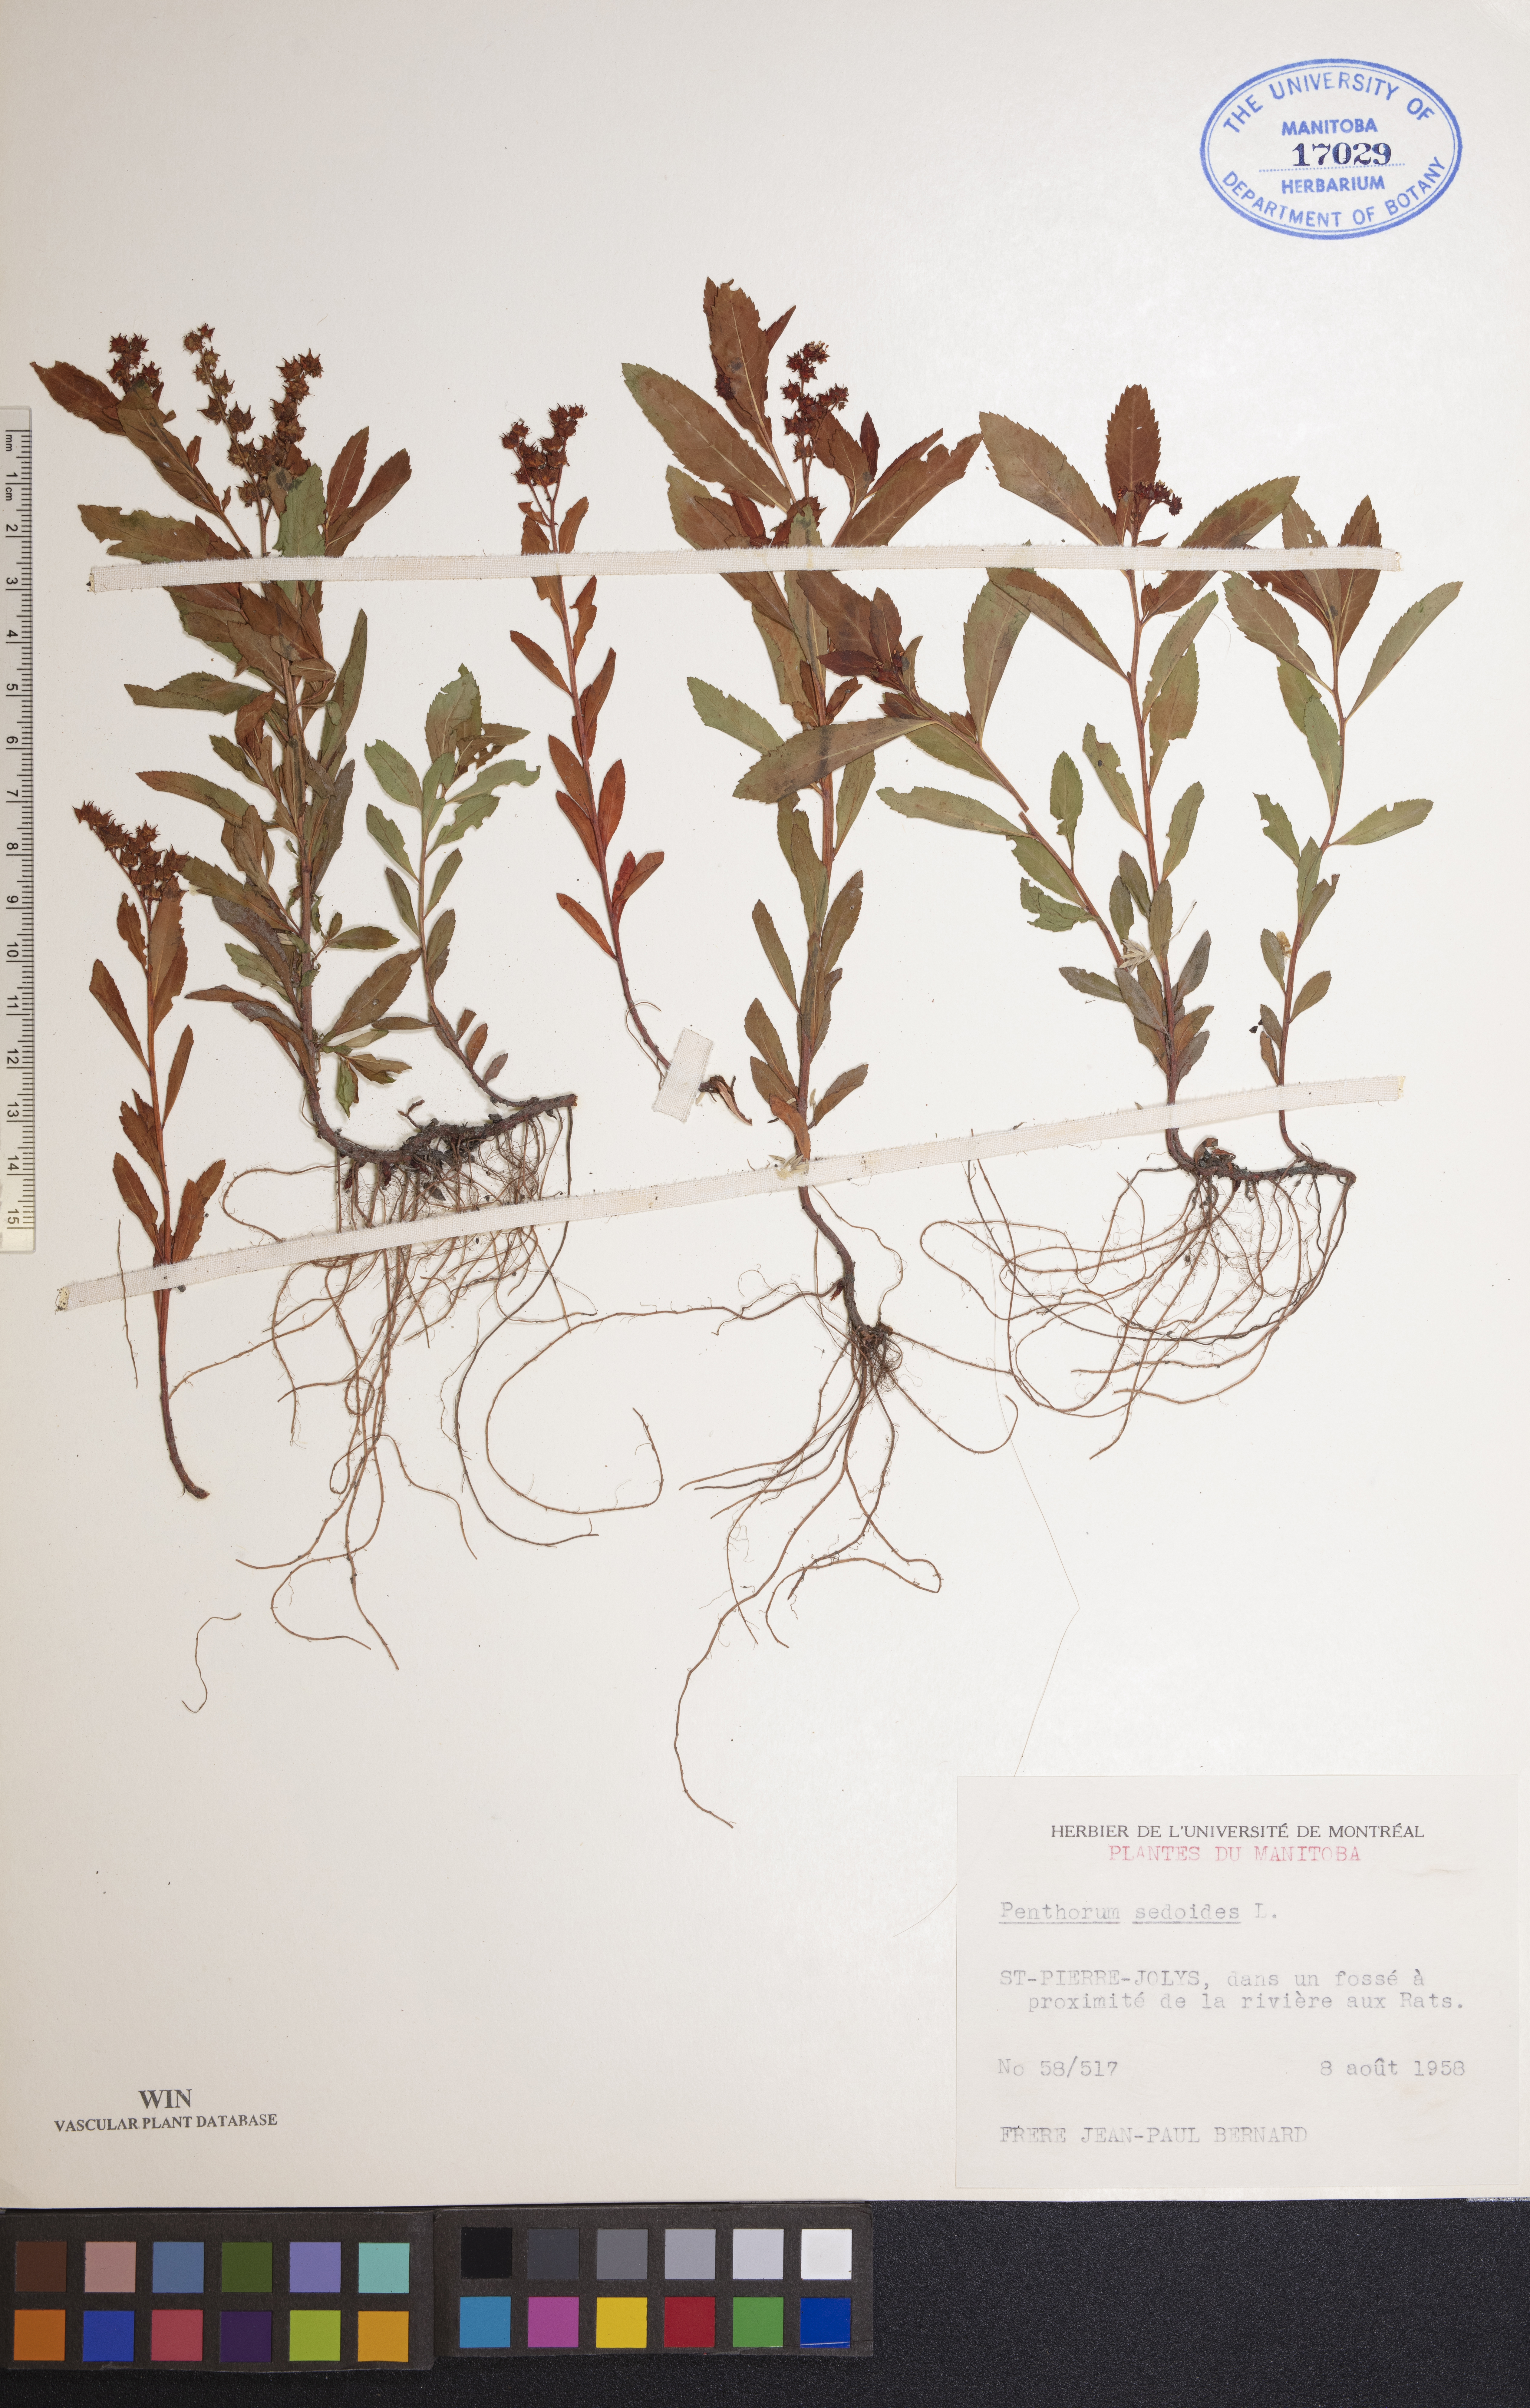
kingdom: Plantae
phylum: Tracheophyta
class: Magnoliopsida
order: Saxifragales
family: Penthoraceae
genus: Penthorum
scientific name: Penthorum sedoides
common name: Ditch stonecrop
